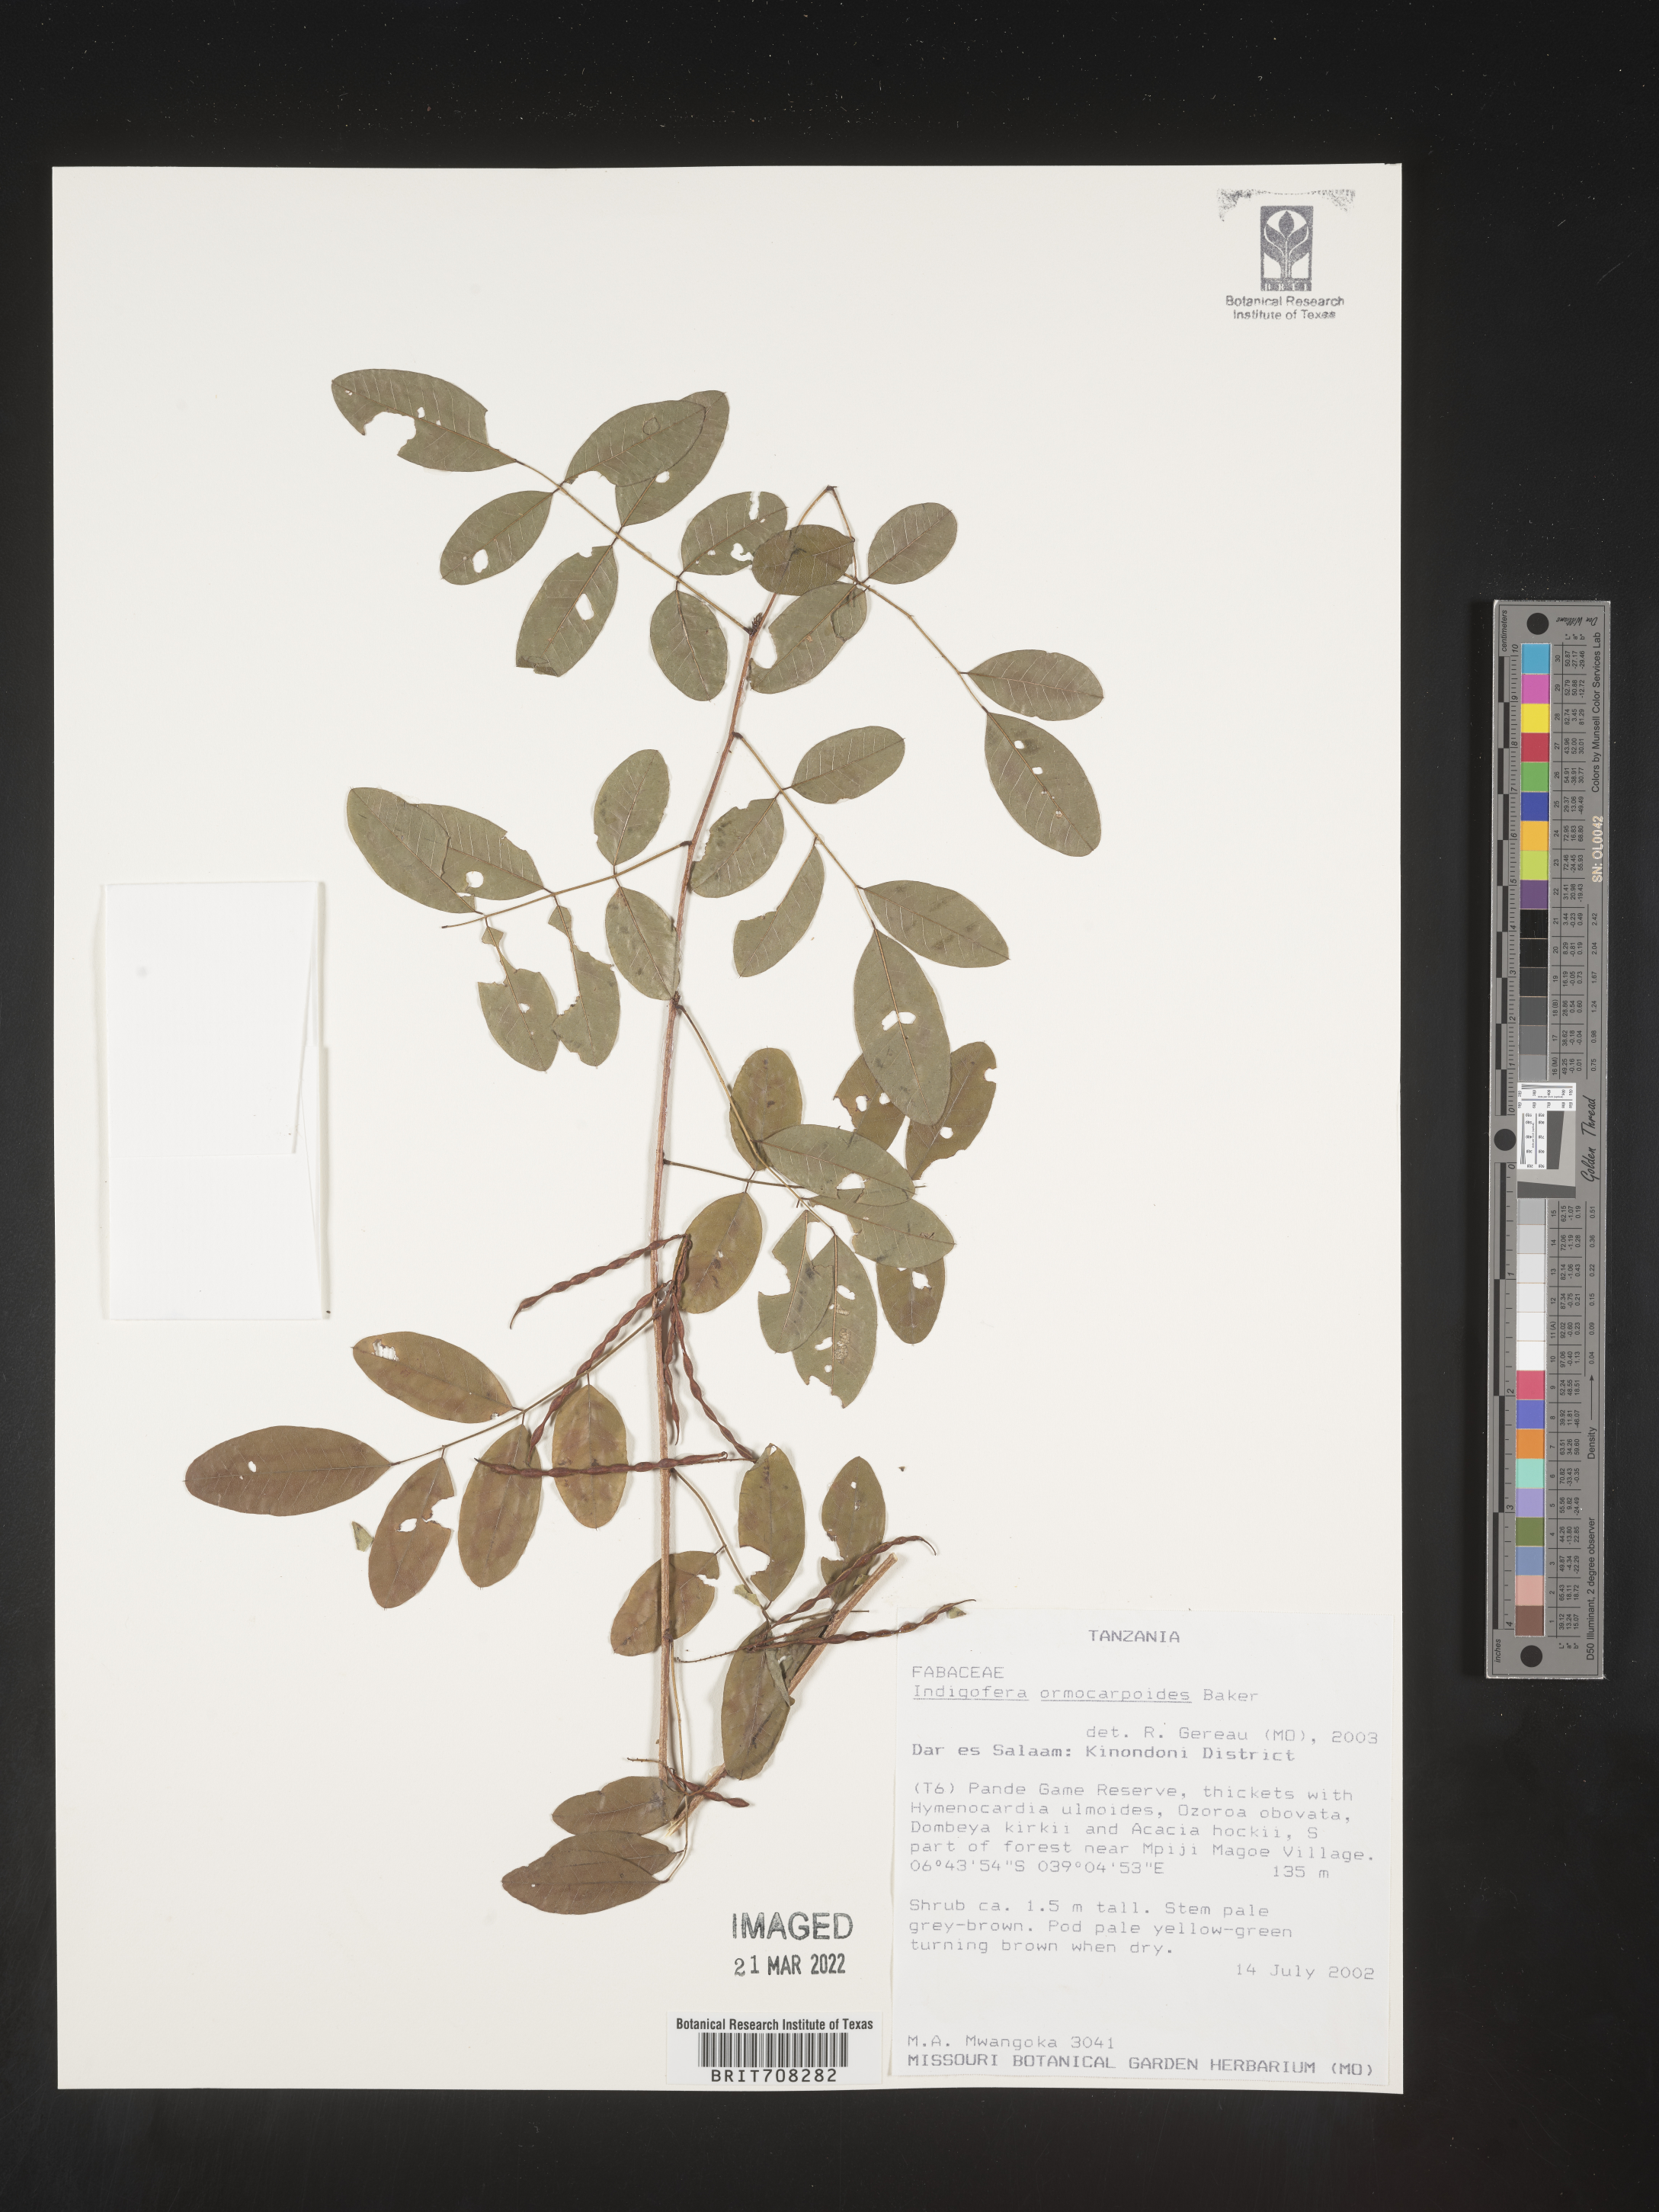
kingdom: Plantae
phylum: Tracheophyta
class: Magnoliopsida
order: Fabales
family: Fabaceae
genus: Indigofera
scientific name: Indigofera
